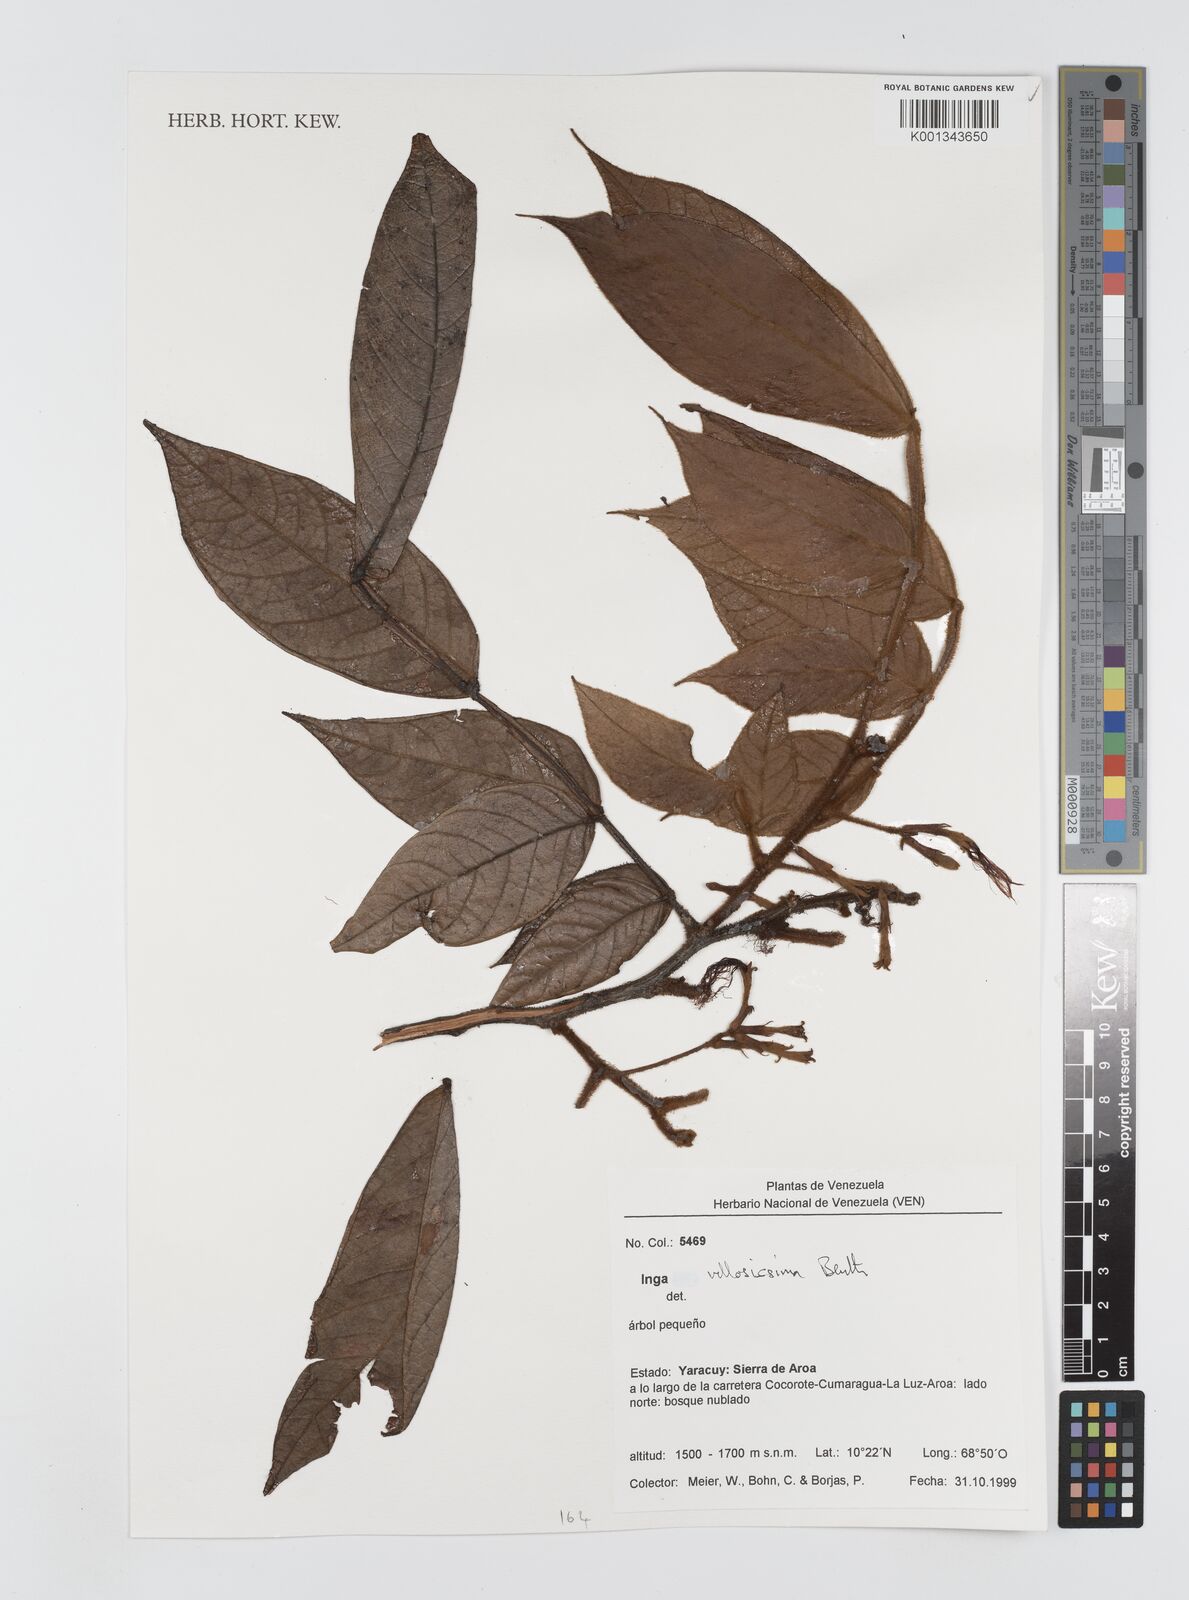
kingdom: Plantae
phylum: Tracheophyta
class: Magnoliopsida
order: Fabales
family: Fabaceae
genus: Inga
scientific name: Inga villosissima
